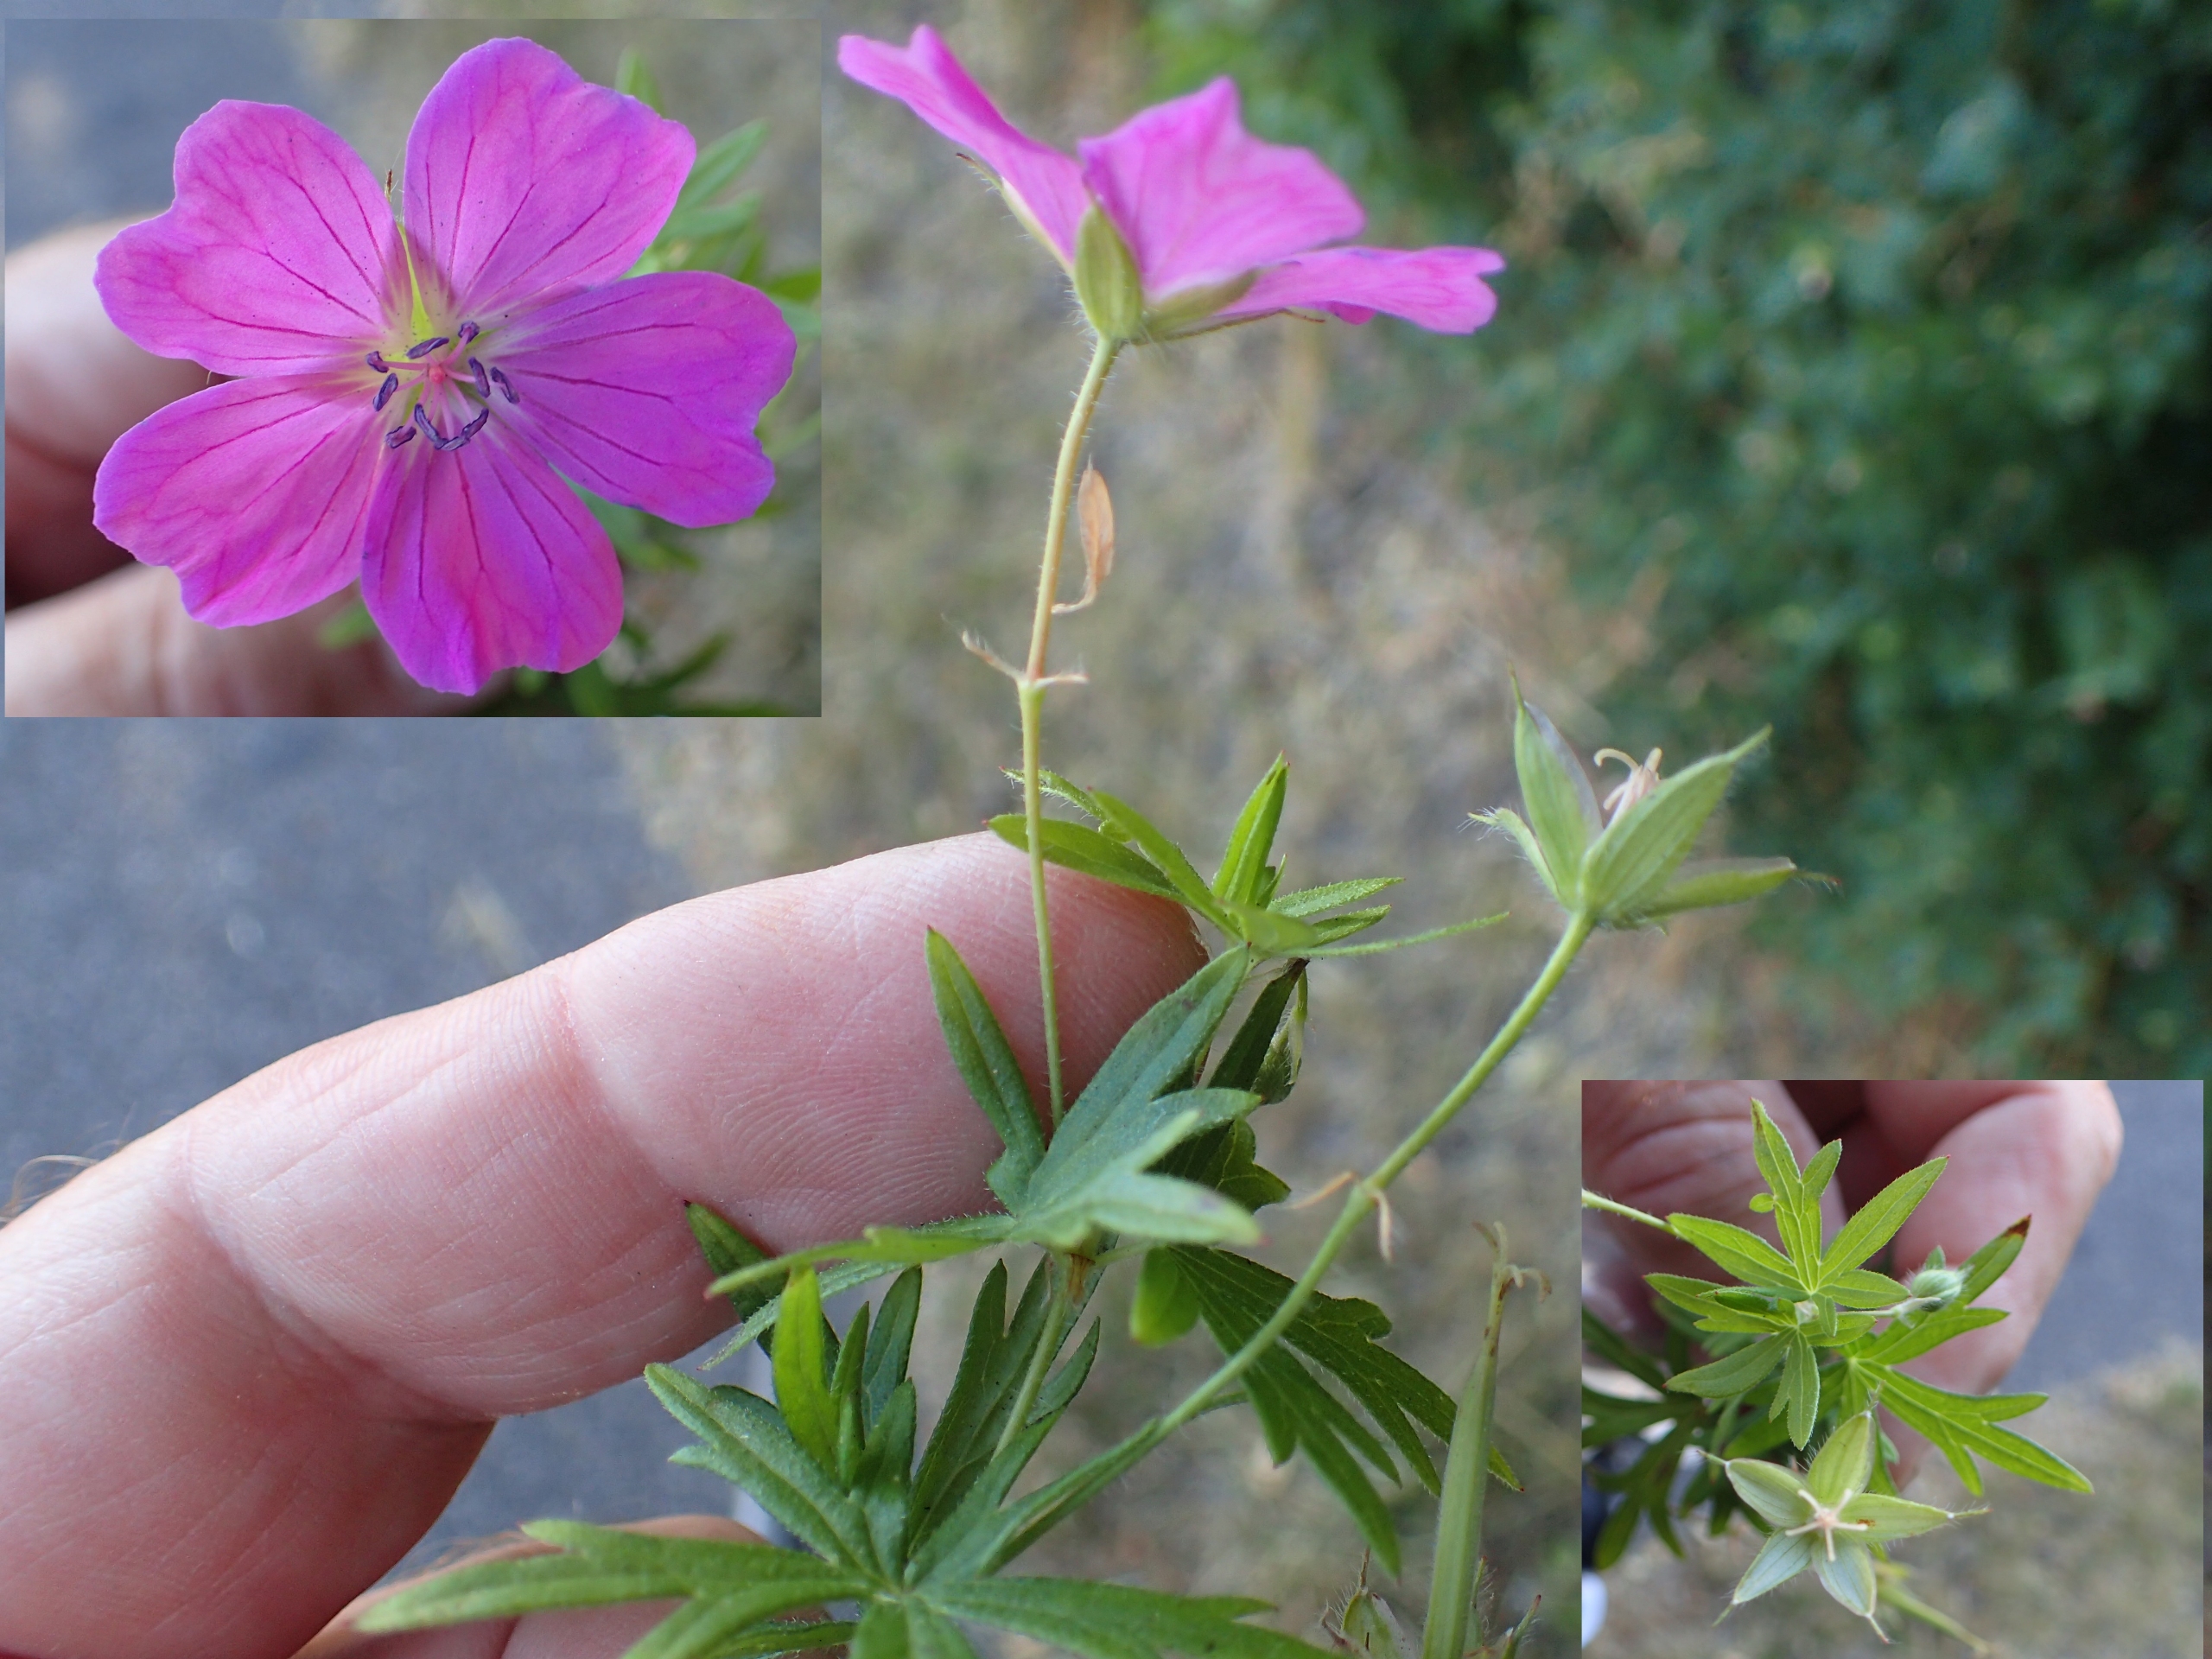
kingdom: Plantae
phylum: Tracheophyta
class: Magnoliopsida
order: Geraniales
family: Geraniaceae
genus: Geranium
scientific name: Geranium sanguineum
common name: Blodrød storkenæb
